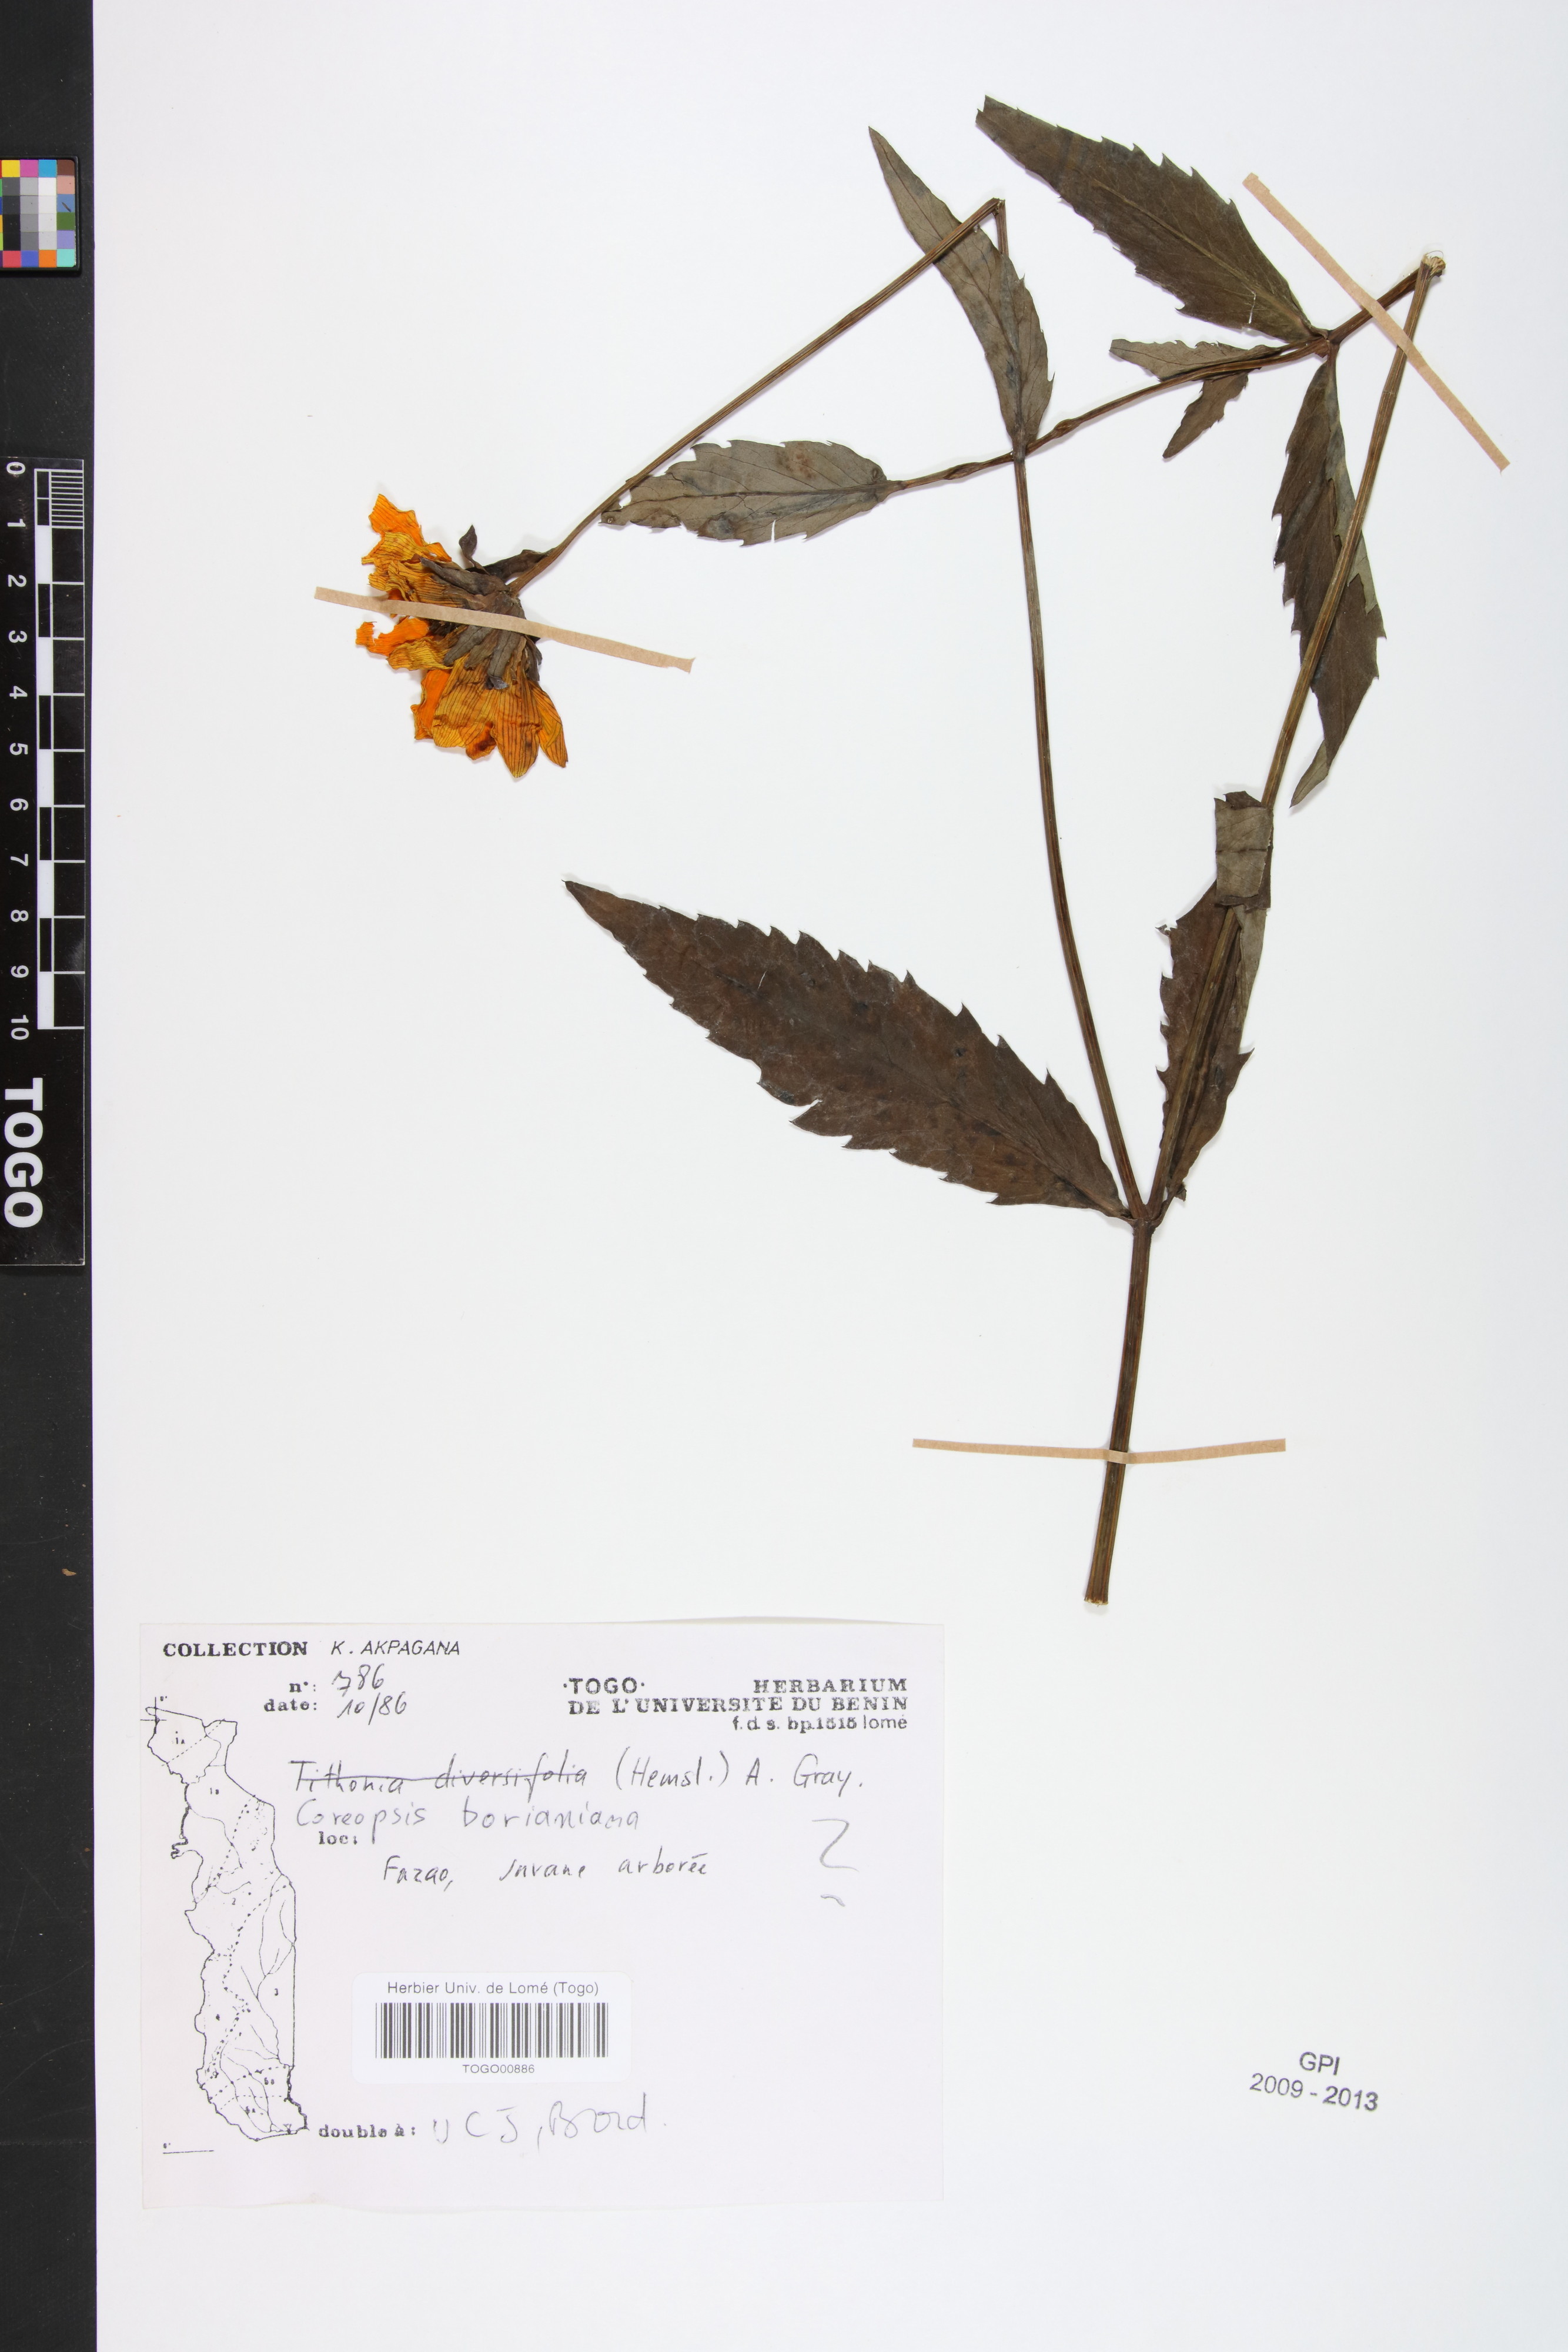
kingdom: Plantae
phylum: Tracheophyta
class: Magnoliopsida
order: Asterales
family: Asteraceae
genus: Bidens
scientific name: Bidens borianiana
